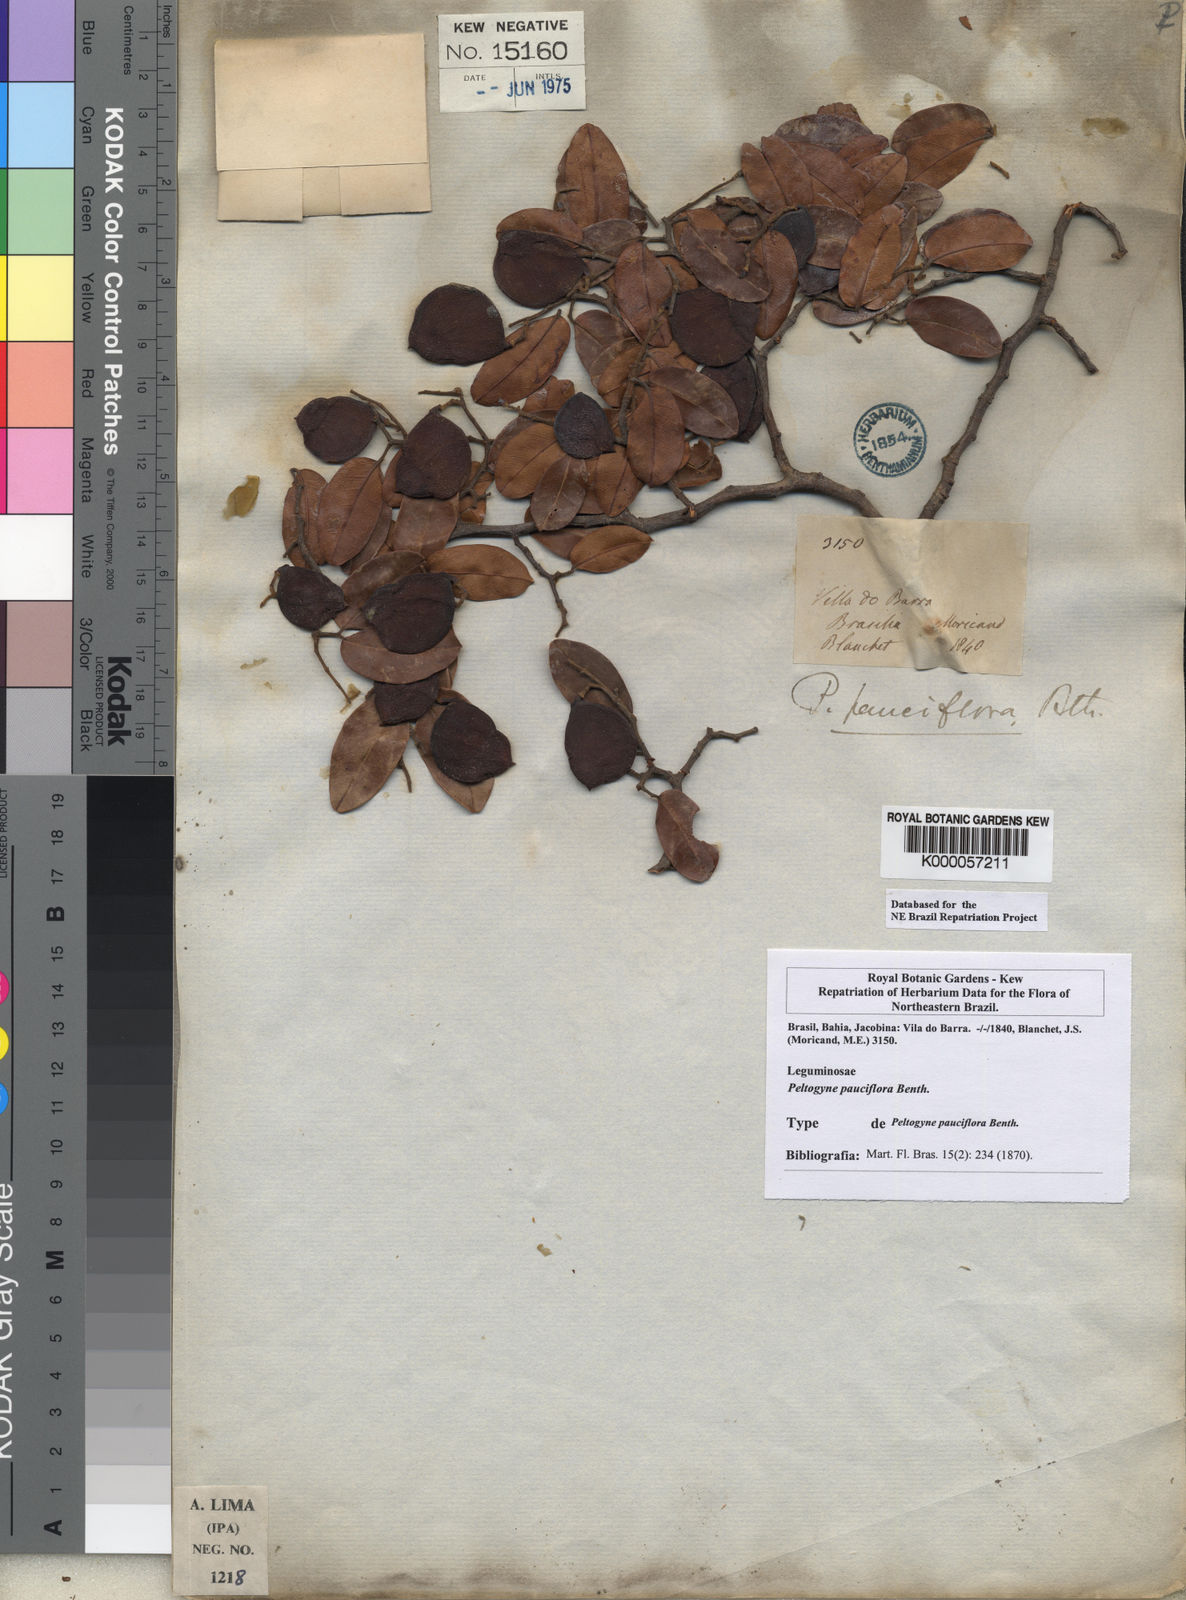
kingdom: Plantae
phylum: Tracheophyta
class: Magnoliopsida
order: Fabales
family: Fabaceae
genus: Peltogyne
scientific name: Peltogyne pauciflora
